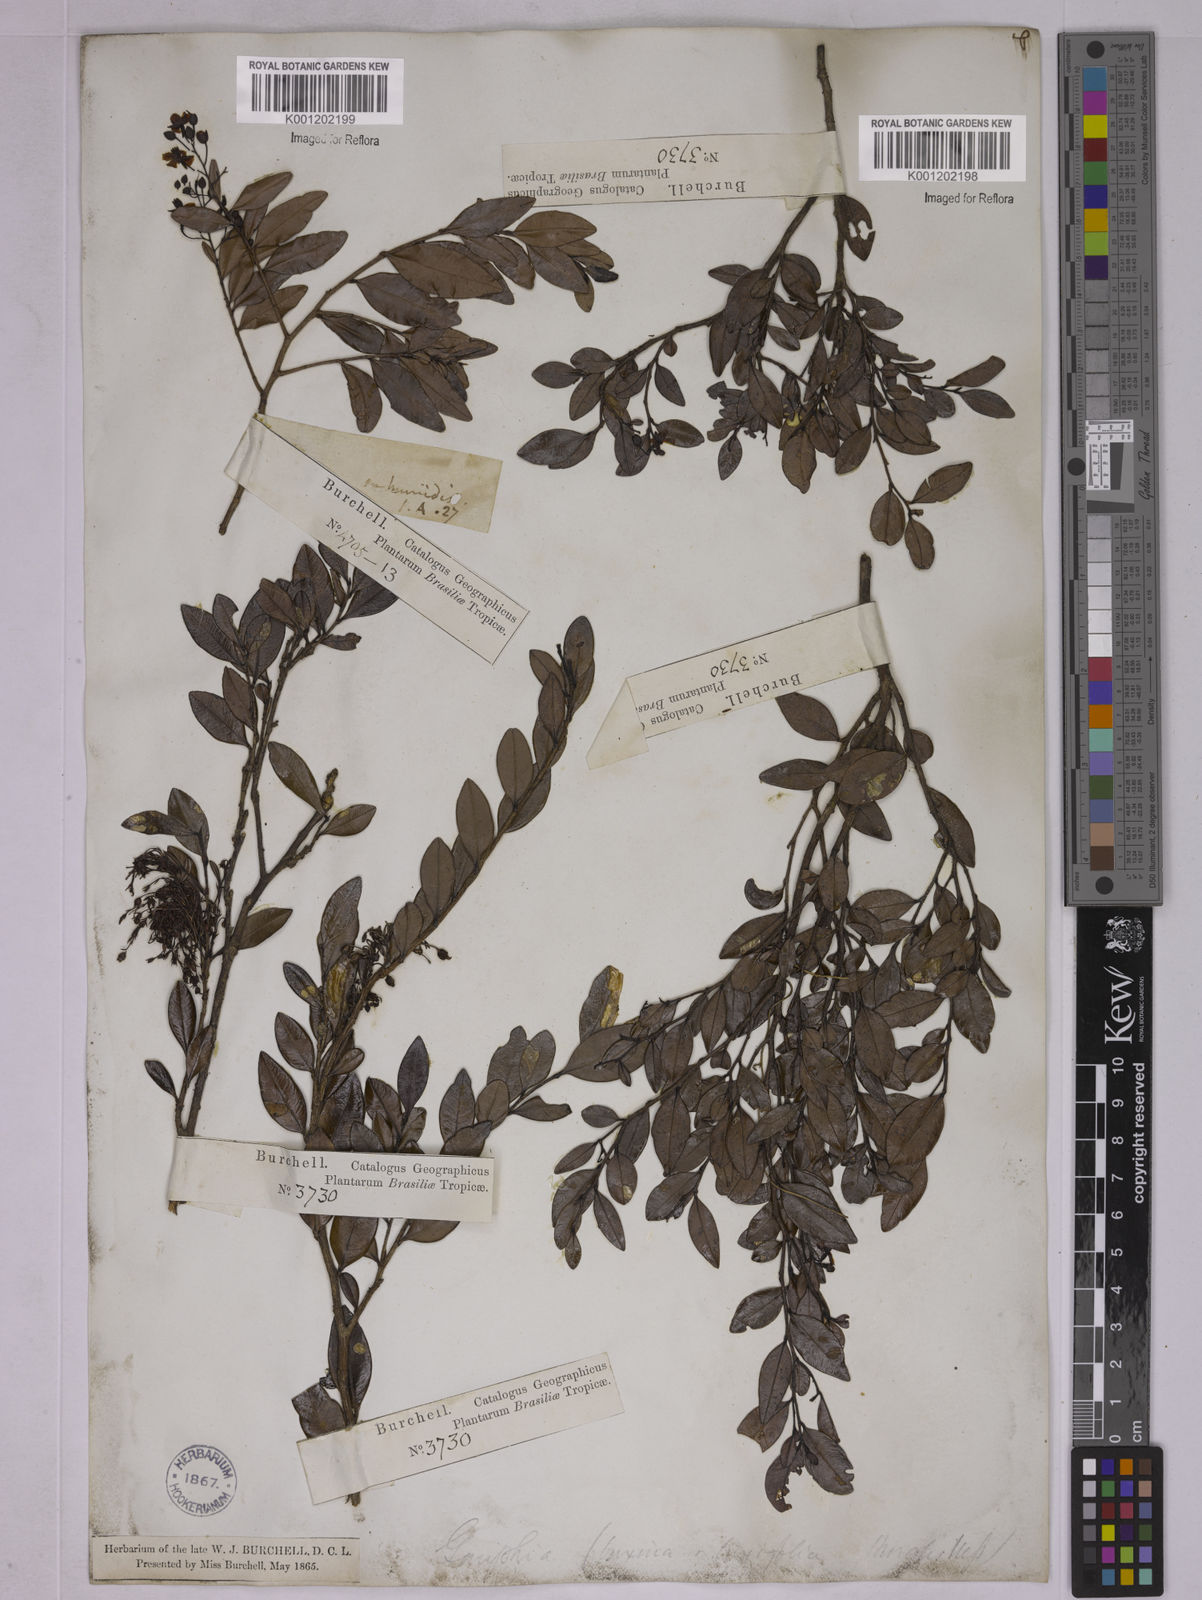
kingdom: Plantae
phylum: Tracheophyta
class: Magnoliopsida
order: Malpighiales
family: Ochnaceae
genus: Ouratea
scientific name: Ouratea
